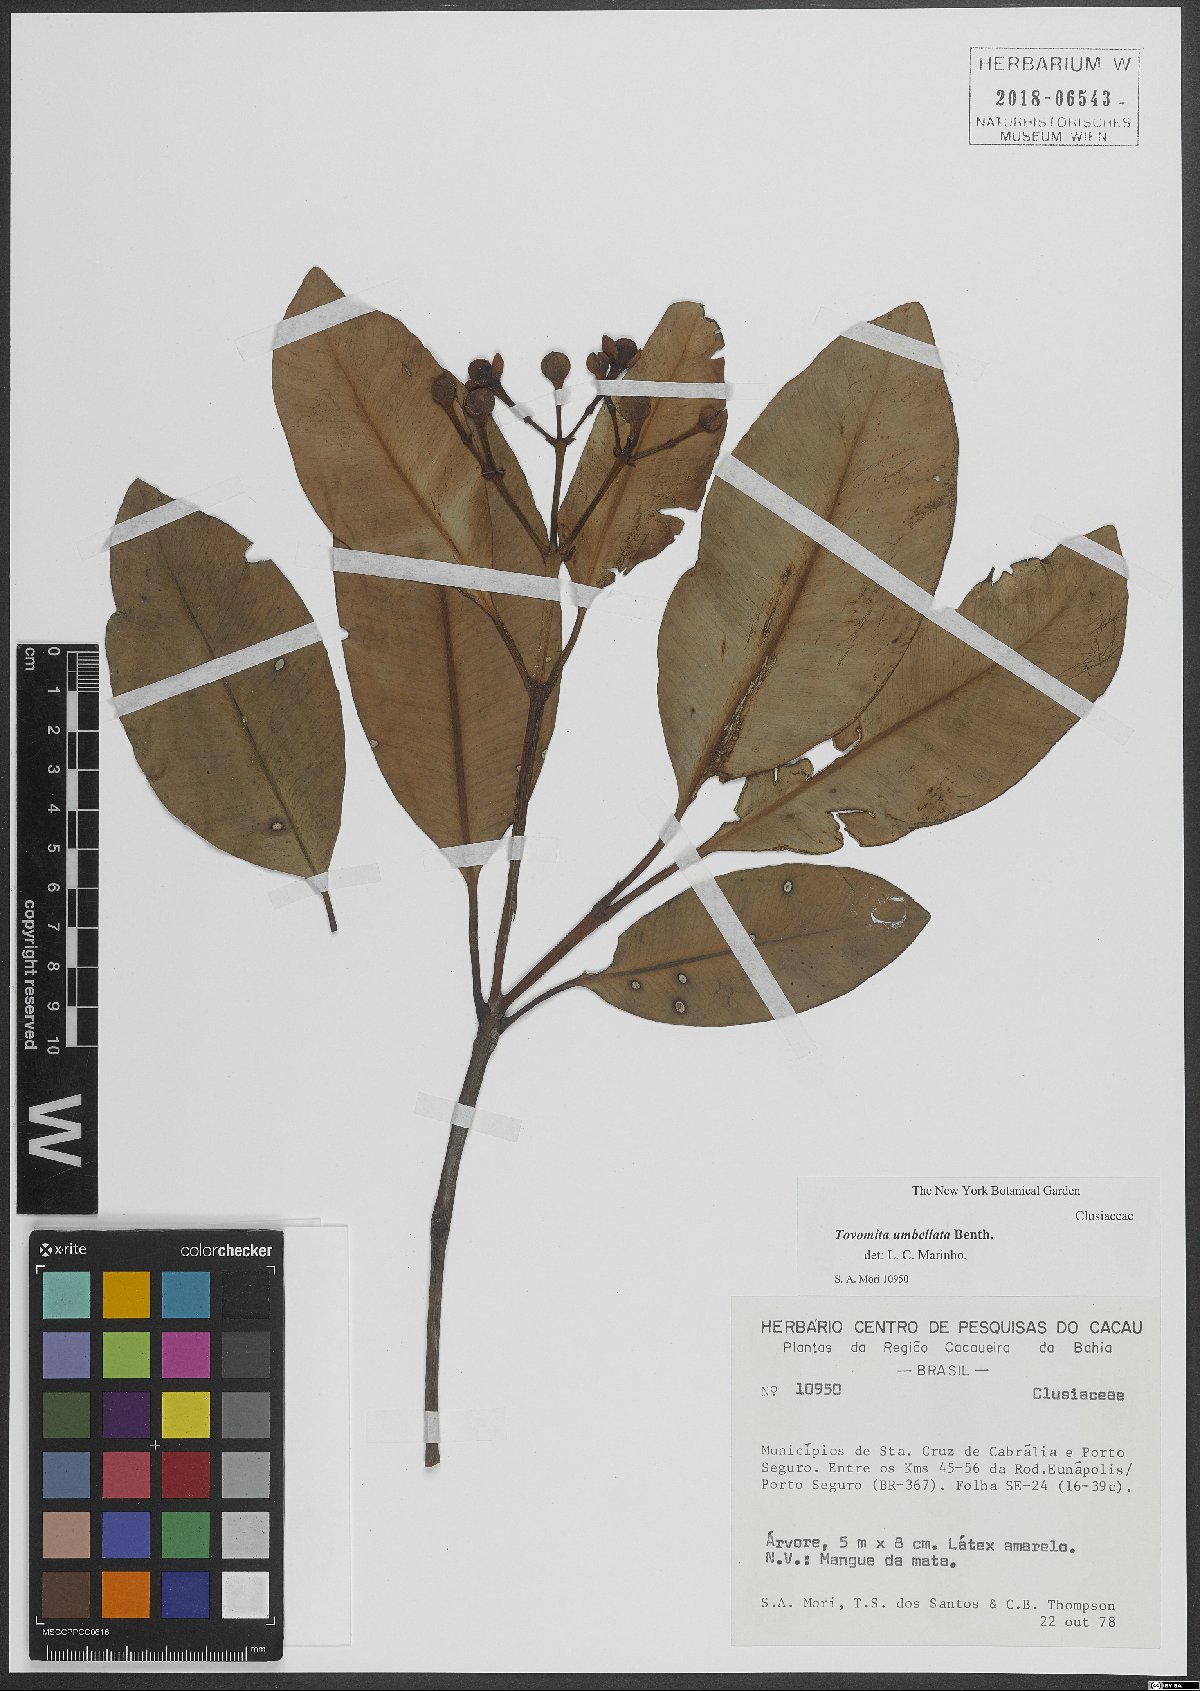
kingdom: Plantae
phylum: Tracheophyta
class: Magnoliopsida
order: Malpighiales
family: Clusiaceae
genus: Tovomita
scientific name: Tovomita umbellata
